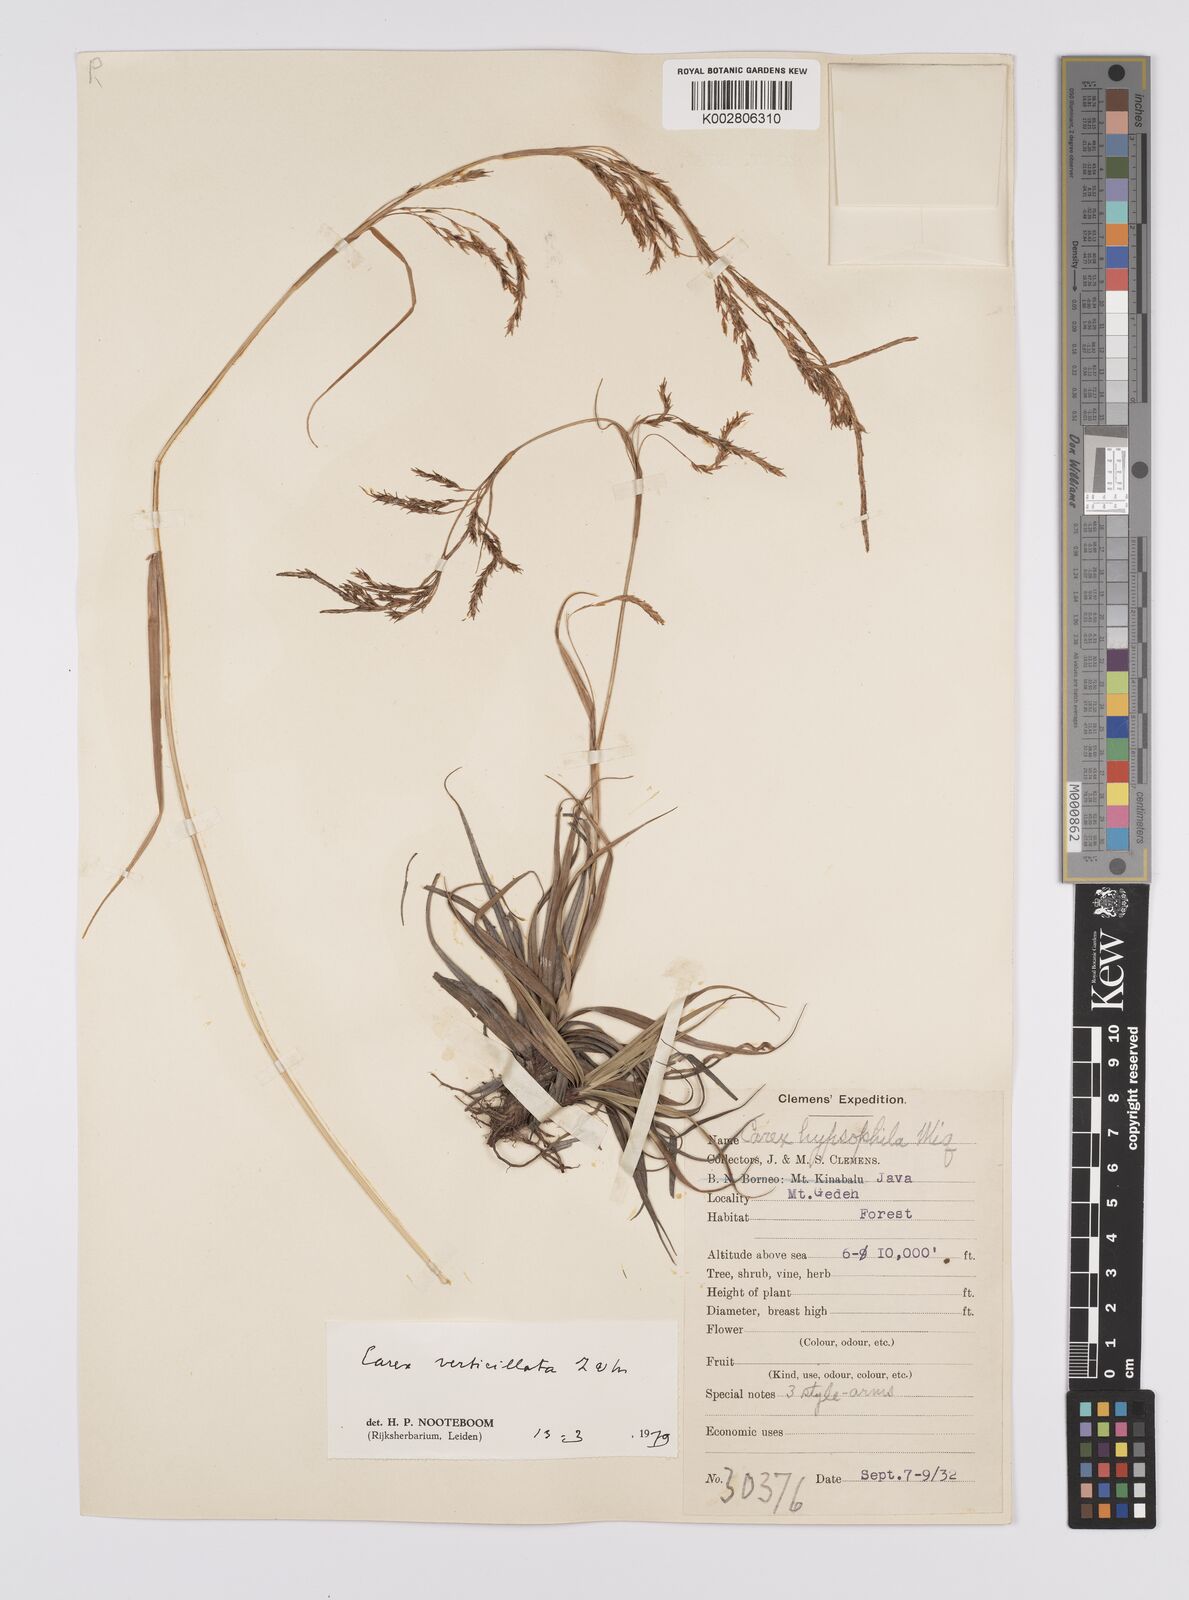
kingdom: Plantae
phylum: Tracheophyta
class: Liliopsida
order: Poales
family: Cyperaceae
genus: Carex
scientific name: Carex verticillata
